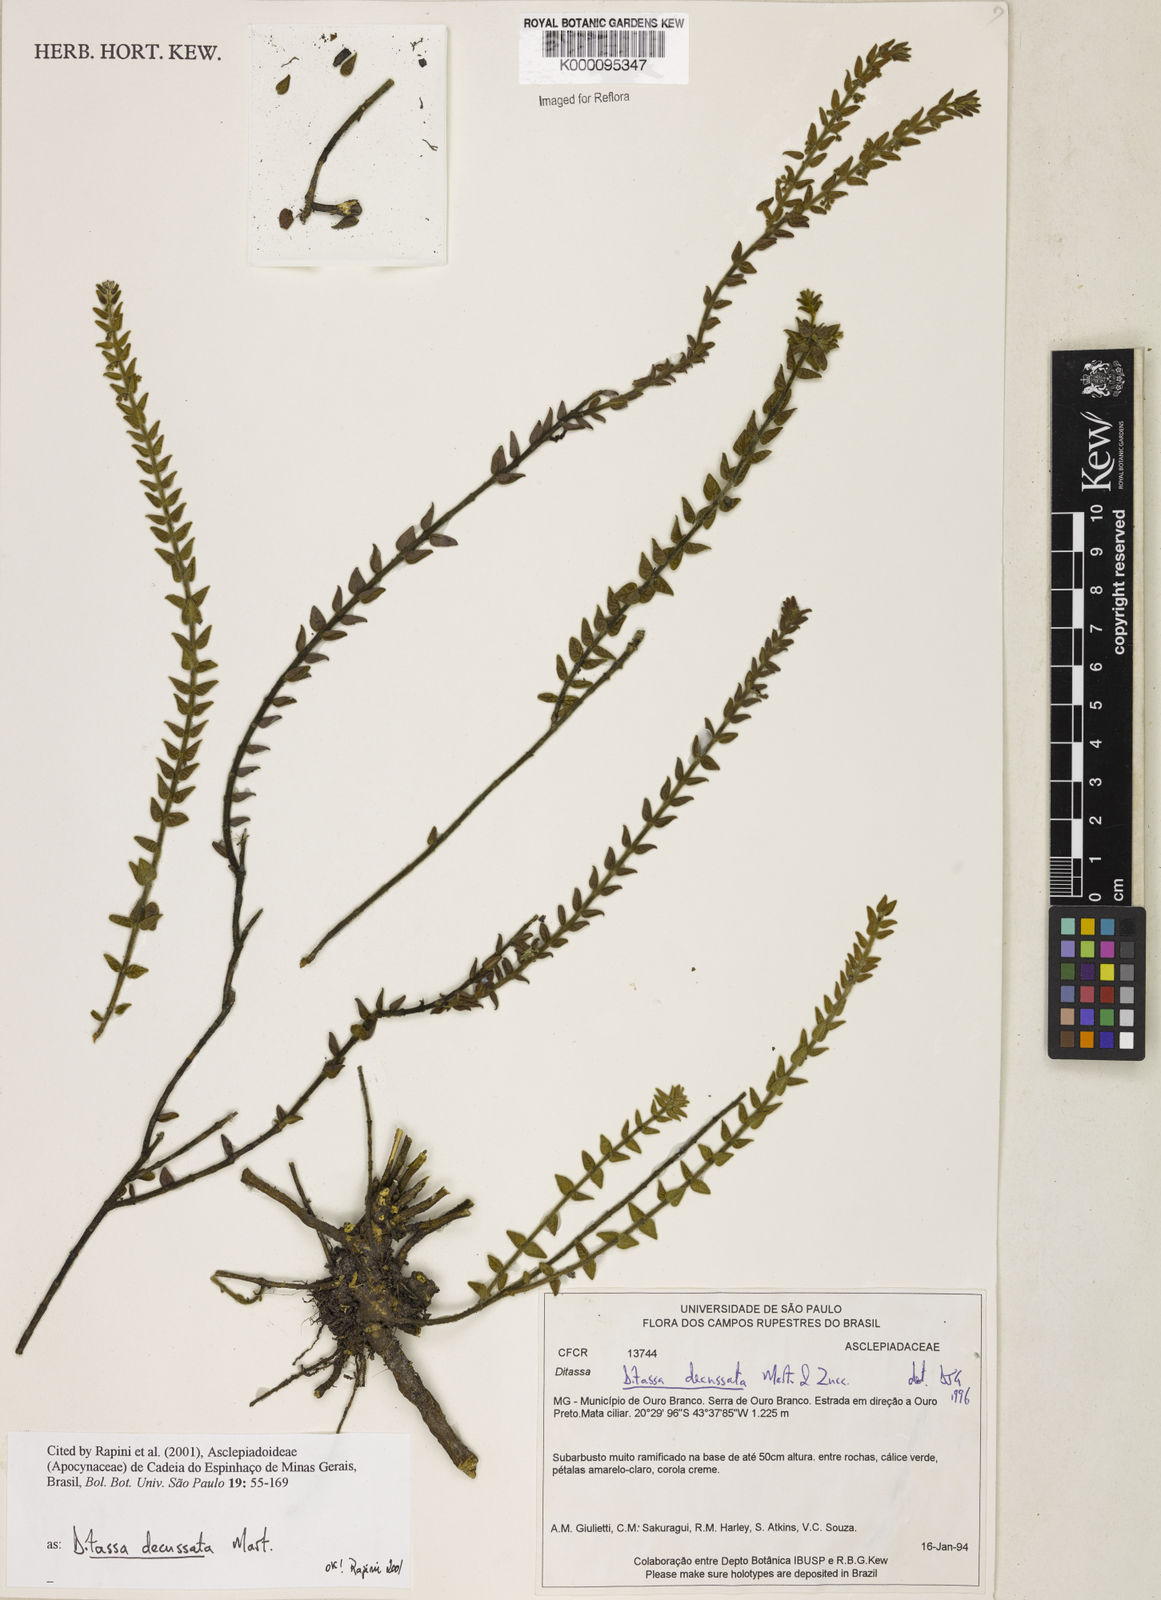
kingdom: Plantae
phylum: Tracheophyta
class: Magnoliopsida
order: Gentianales
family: Apocynaceae
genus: Minaria
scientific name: Minaria decussata
